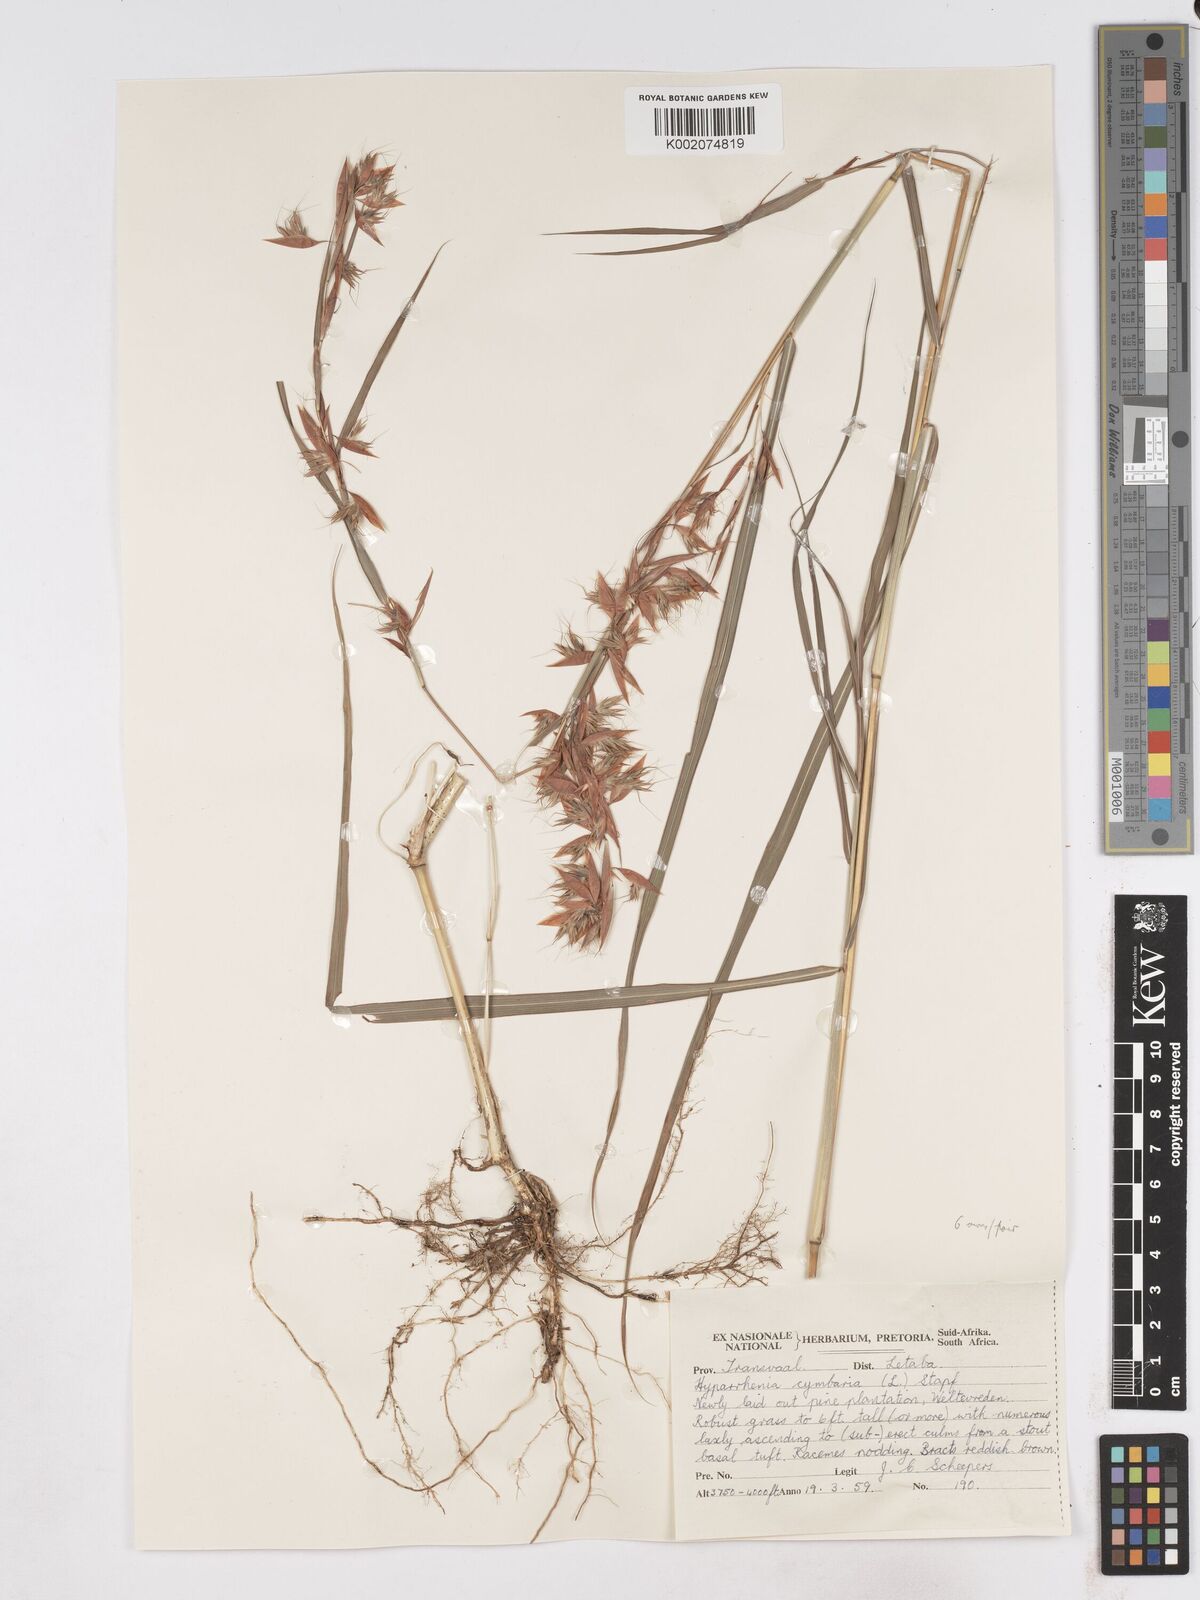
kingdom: Plantae
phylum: Tracheophyta
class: Liliopsida
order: Poales
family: Poaceae
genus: Hyparrhenia
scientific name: Hyparrhenia cymbaria
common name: Boat thatching grass
